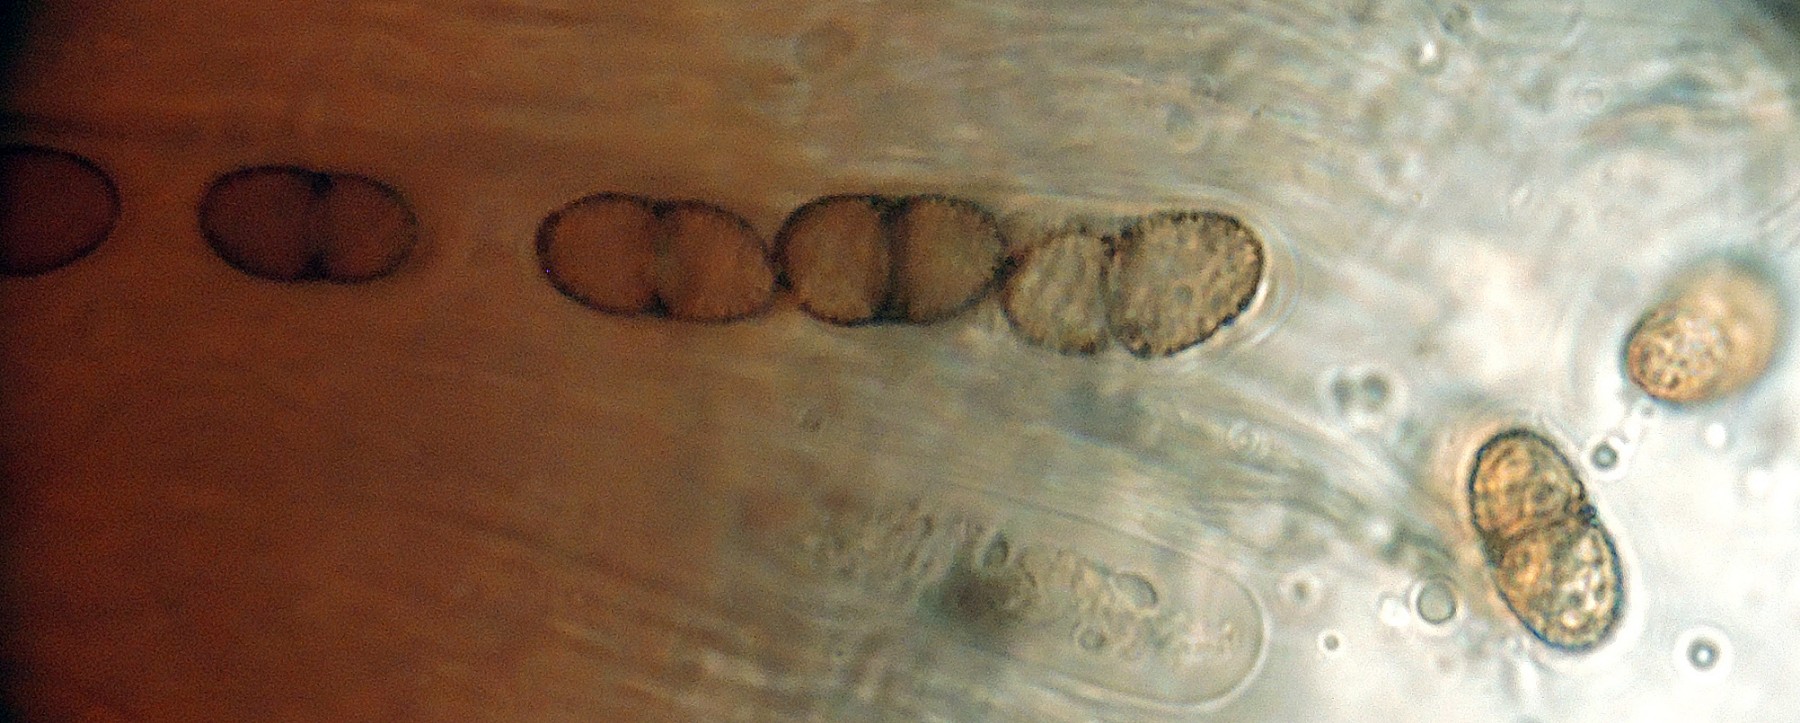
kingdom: Fungi
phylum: Ascomycota
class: Dothideomycetes
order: Pleosporales
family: Didymosphaeriaceae
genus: Didymosphaeria
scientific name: Didymosphaeria oblitescens
